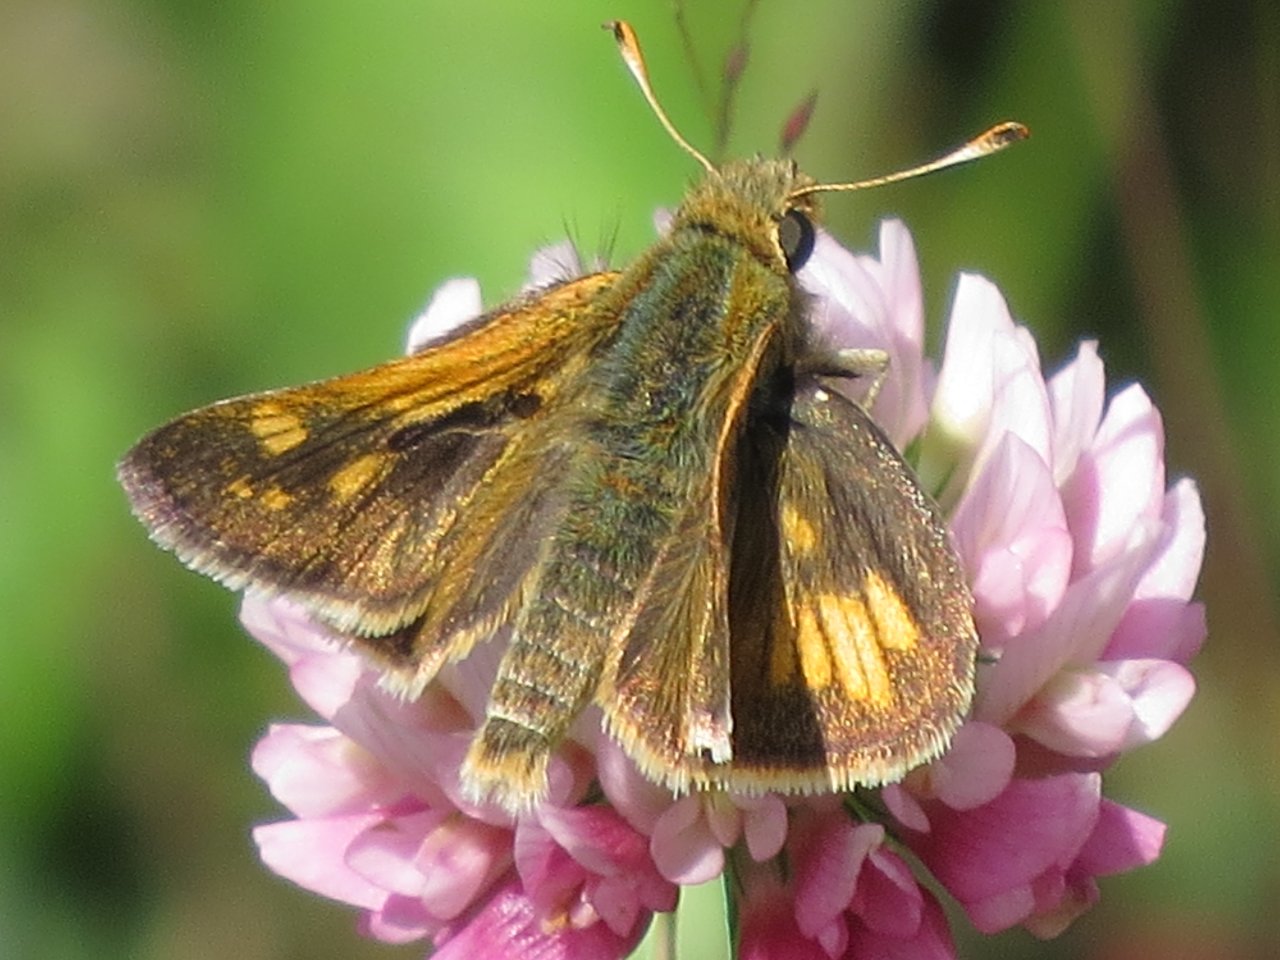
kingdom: Animalia
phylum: Arthropoda
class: Insecta
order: Lepidoptera
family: Hesperiidae
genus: Polites
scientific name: Polites coras
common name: Peck's Skipper
